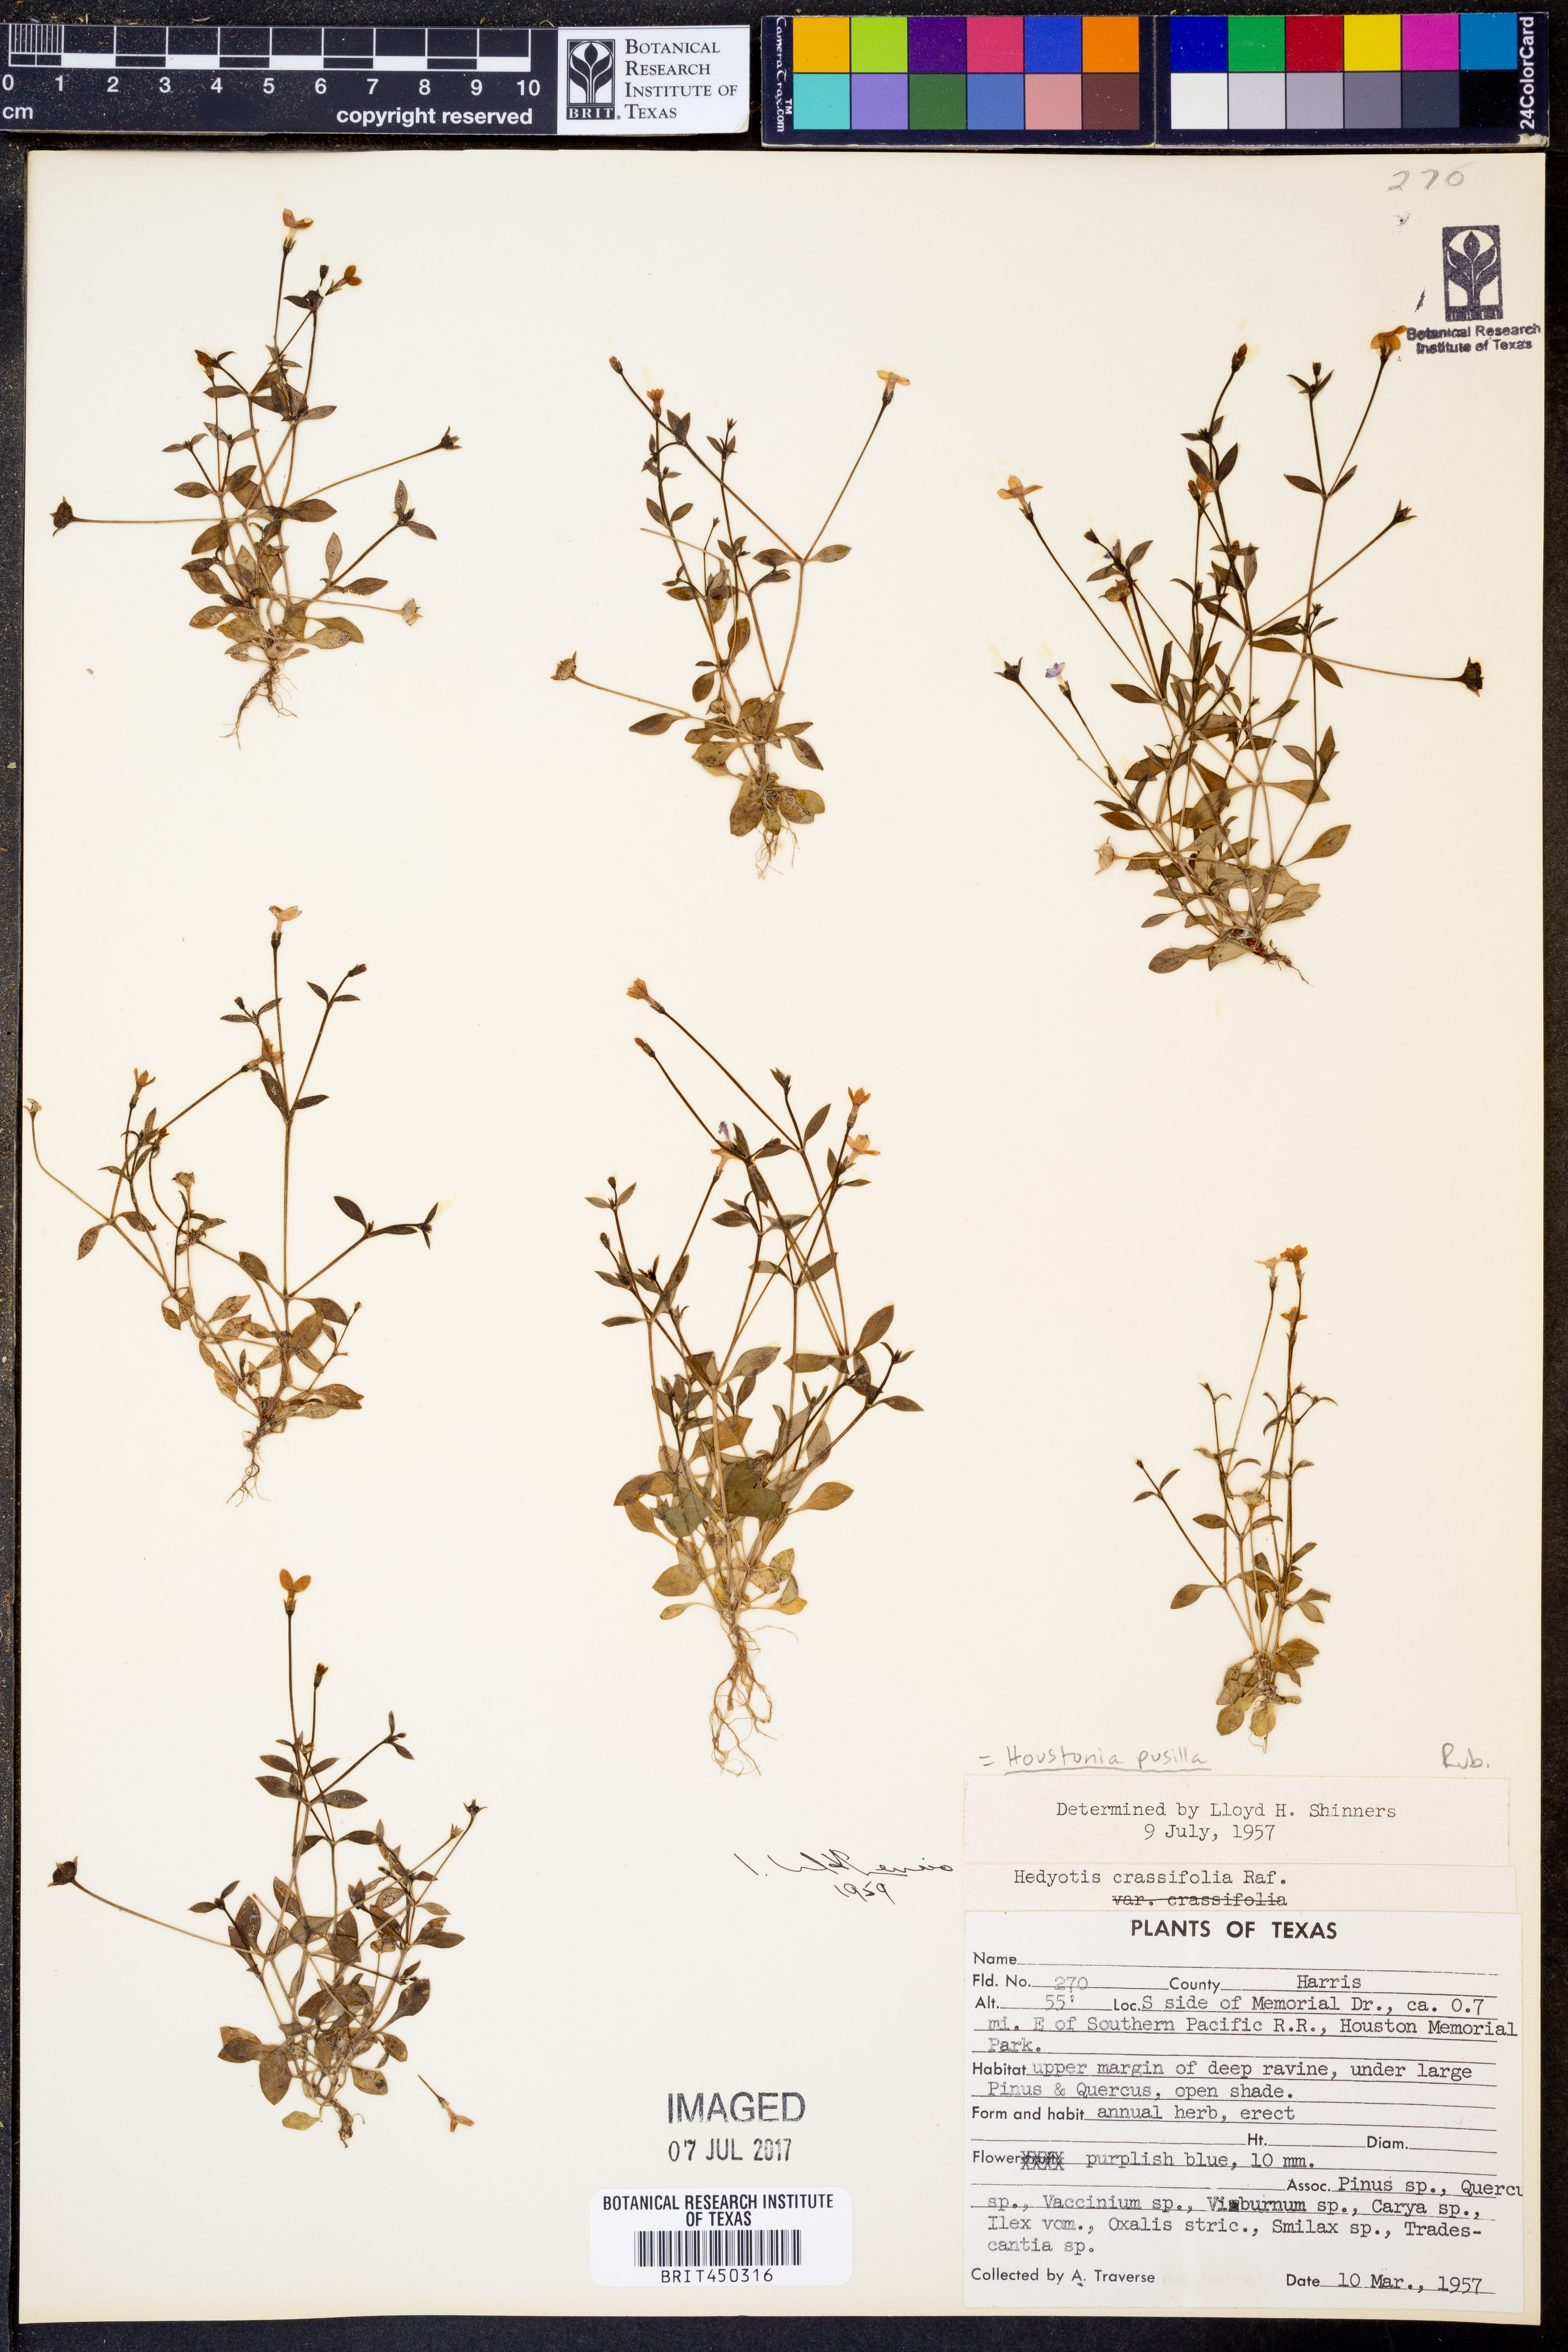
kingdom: Plantae
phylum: Tracheophyta
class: Magnoliopsida
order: Gentianales
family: Rubiaceae
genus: Houstonia
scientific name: Houstonia pusilla
